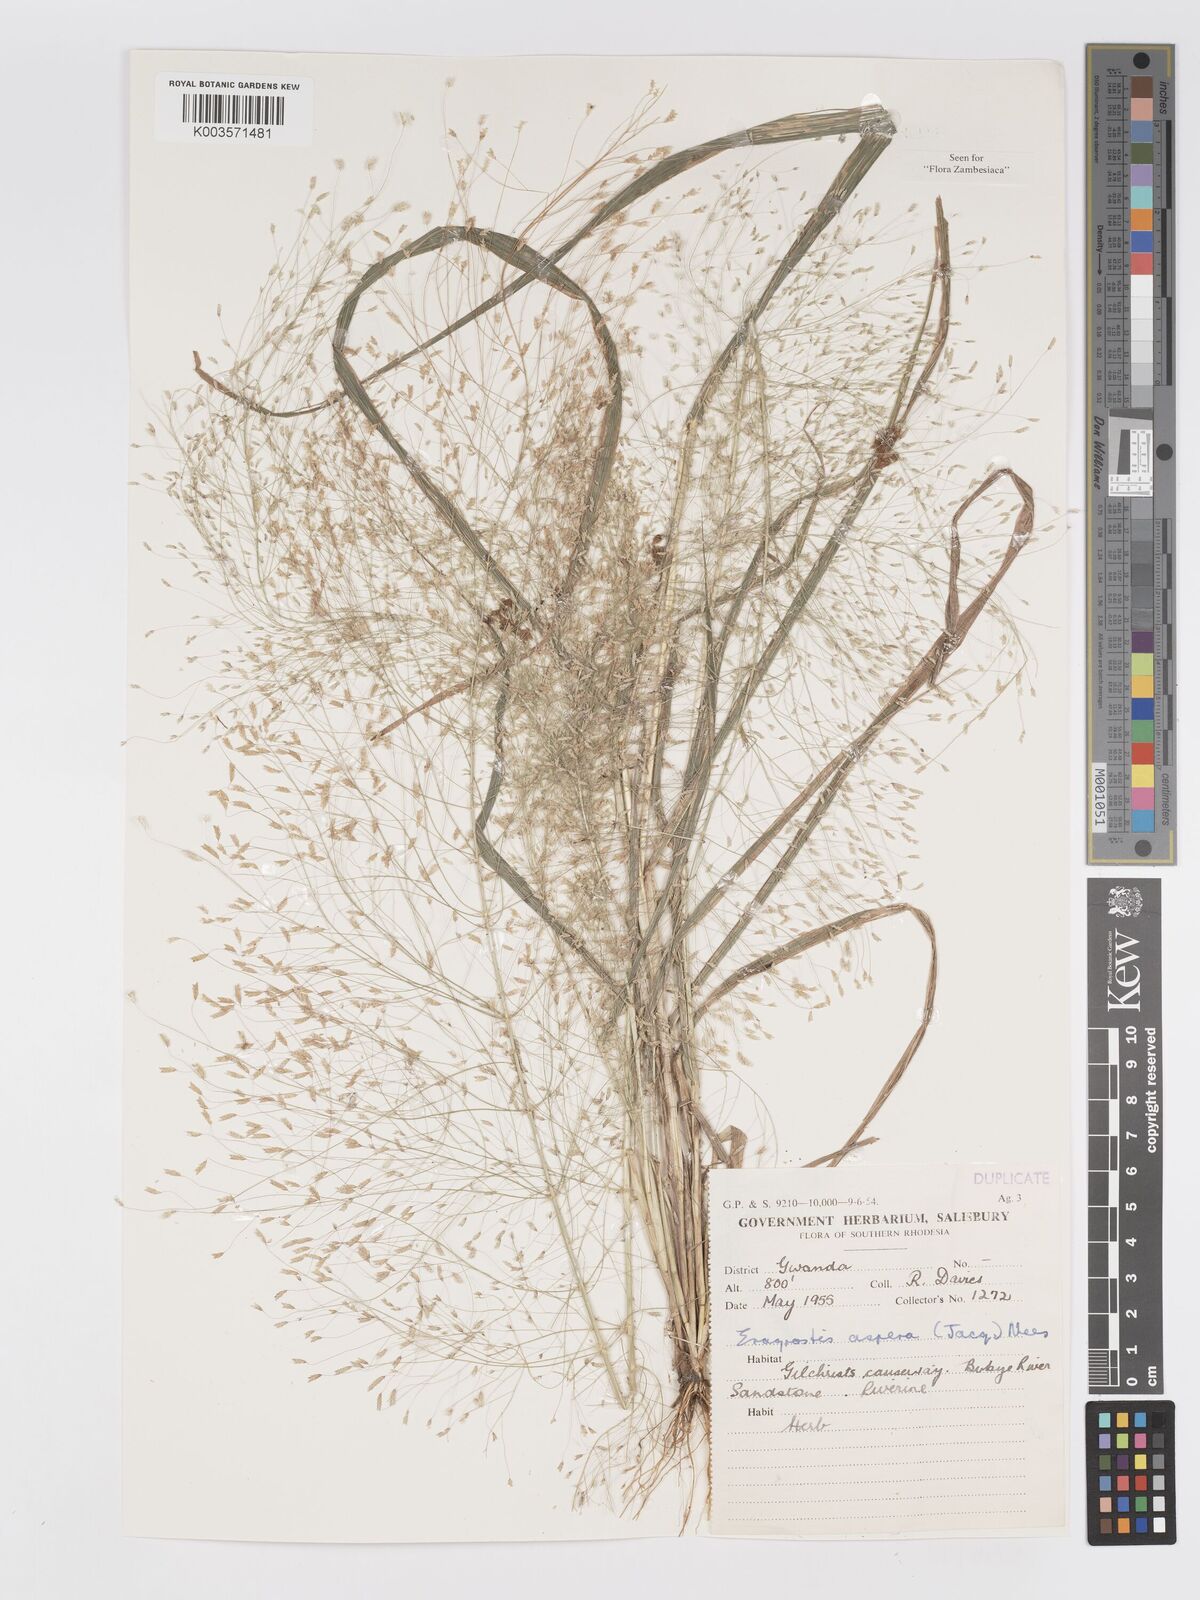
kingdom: Plantae
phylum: Tracheophyta
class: Liliopsida
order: Poales
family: Poaceae
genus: Eragrostis
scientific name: Eragrostis aspera
